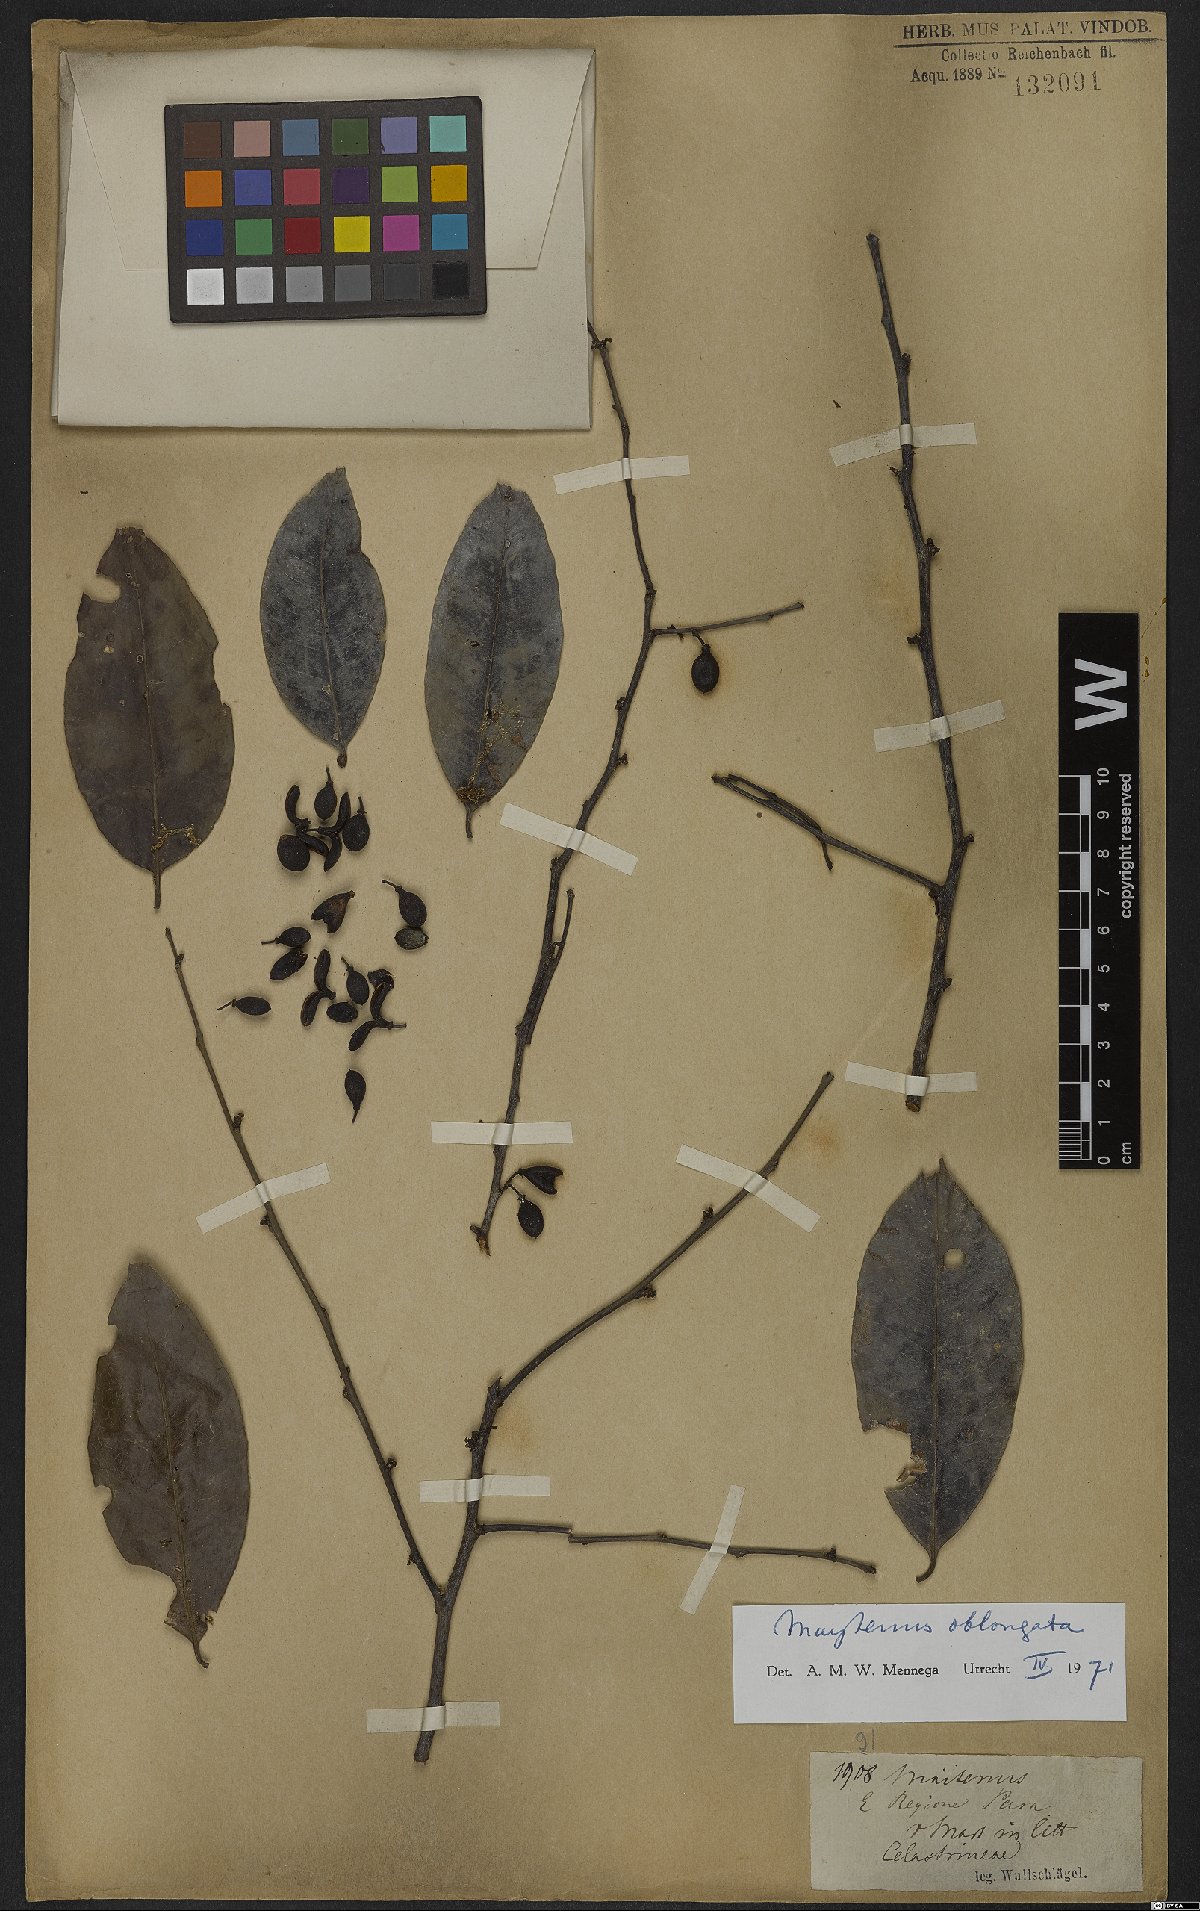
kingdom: Plantae
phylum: Tracheophyta
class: Magnoliopsida
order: Celastrales
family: Celastraceae
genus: Monteverdia
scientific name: Monteverdia oblongata
